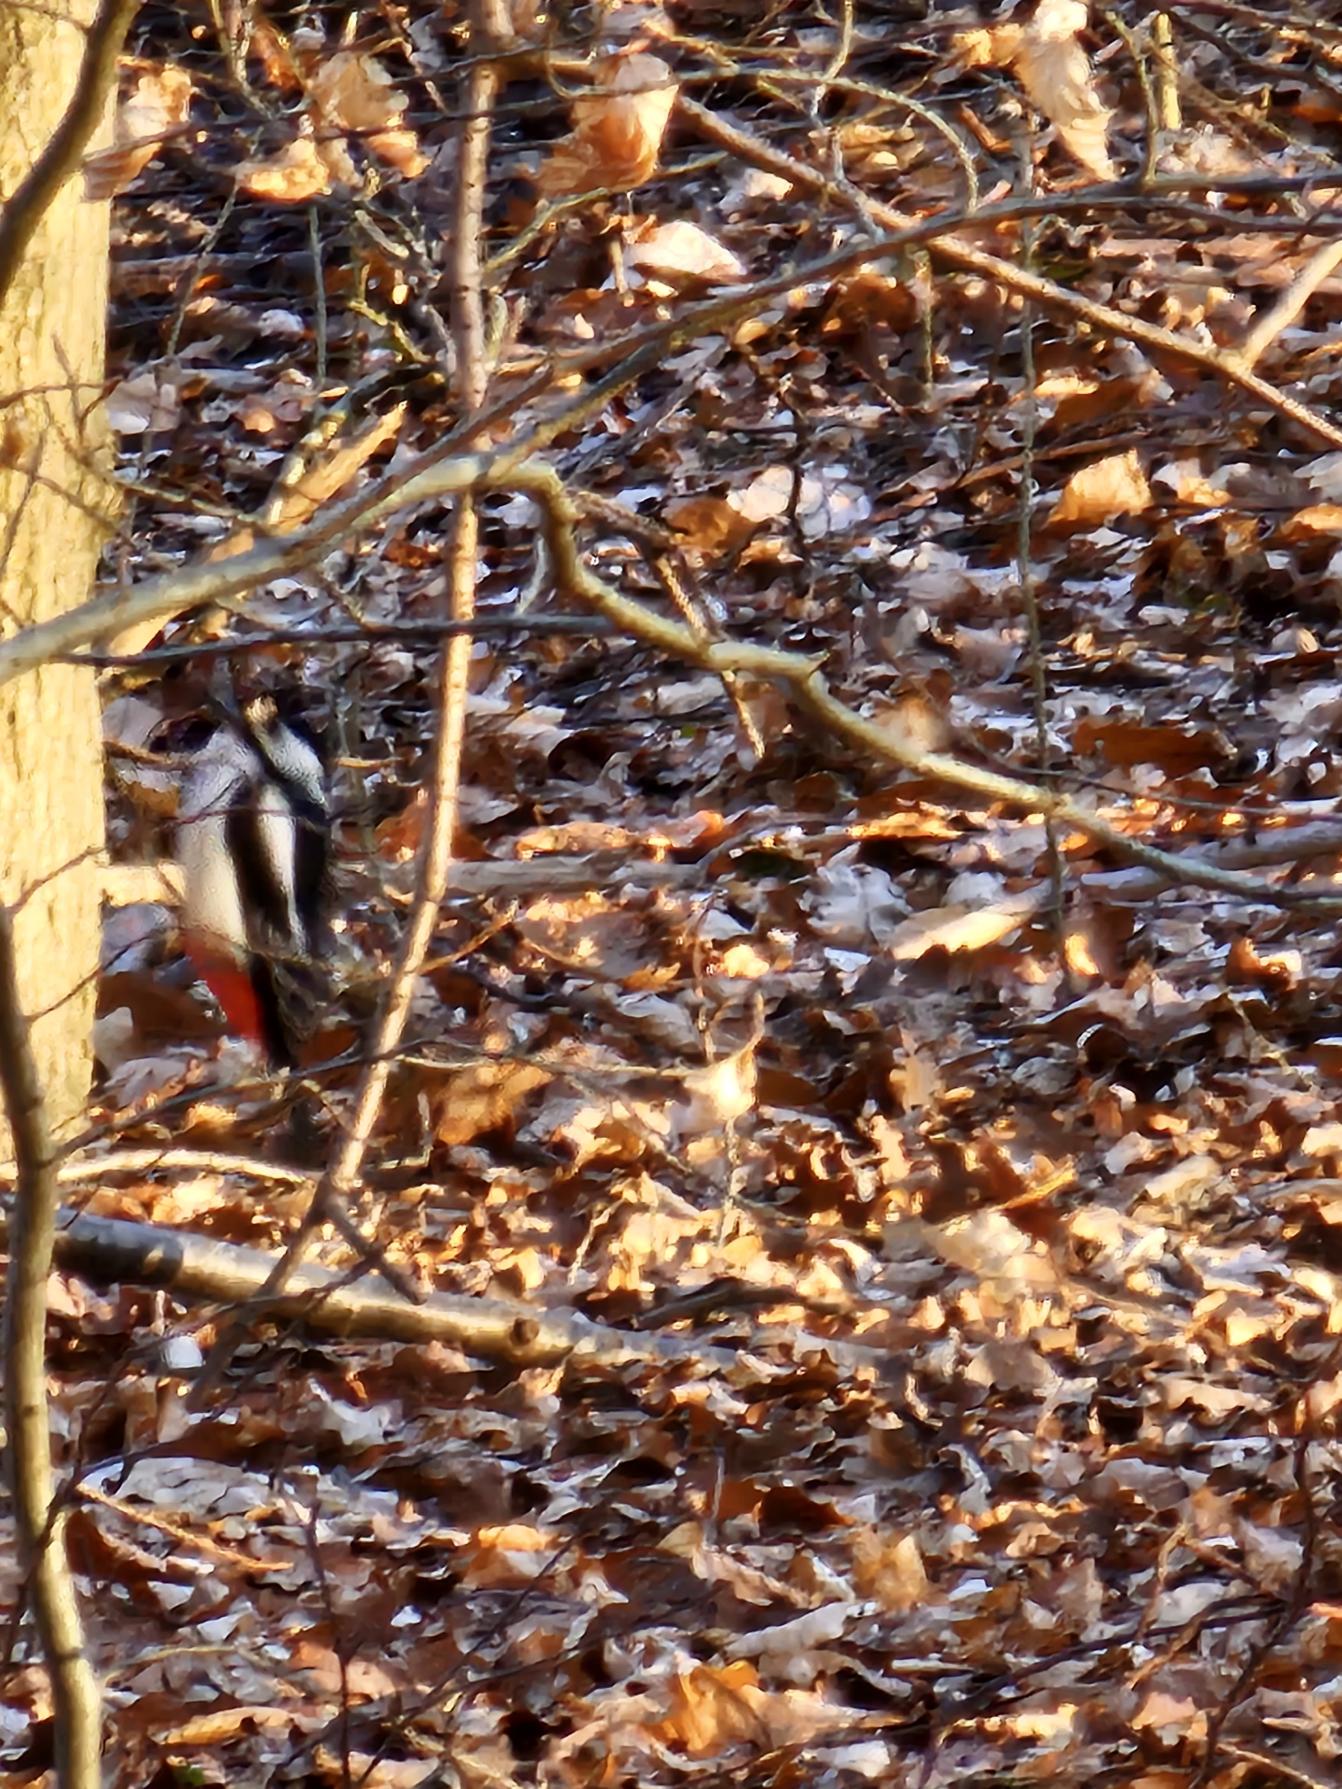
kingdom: Animalia
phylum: Chordata
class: Aves
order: Piciformes
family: Picidae
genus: Dendrocopos
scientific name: Dendrocopos major
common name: Stor flagspætte
